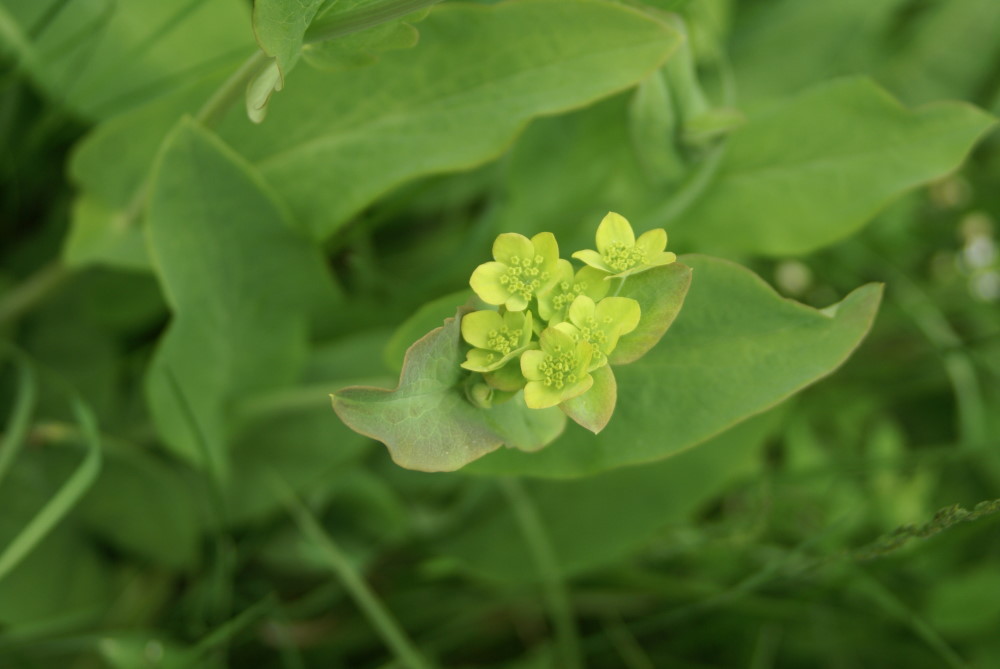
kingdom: Plantae
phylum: Tracheophyta
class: Magnoliopsida
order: Apiales
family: Apiaceae
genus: Bupleurum
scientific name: Bupleurum aureum
